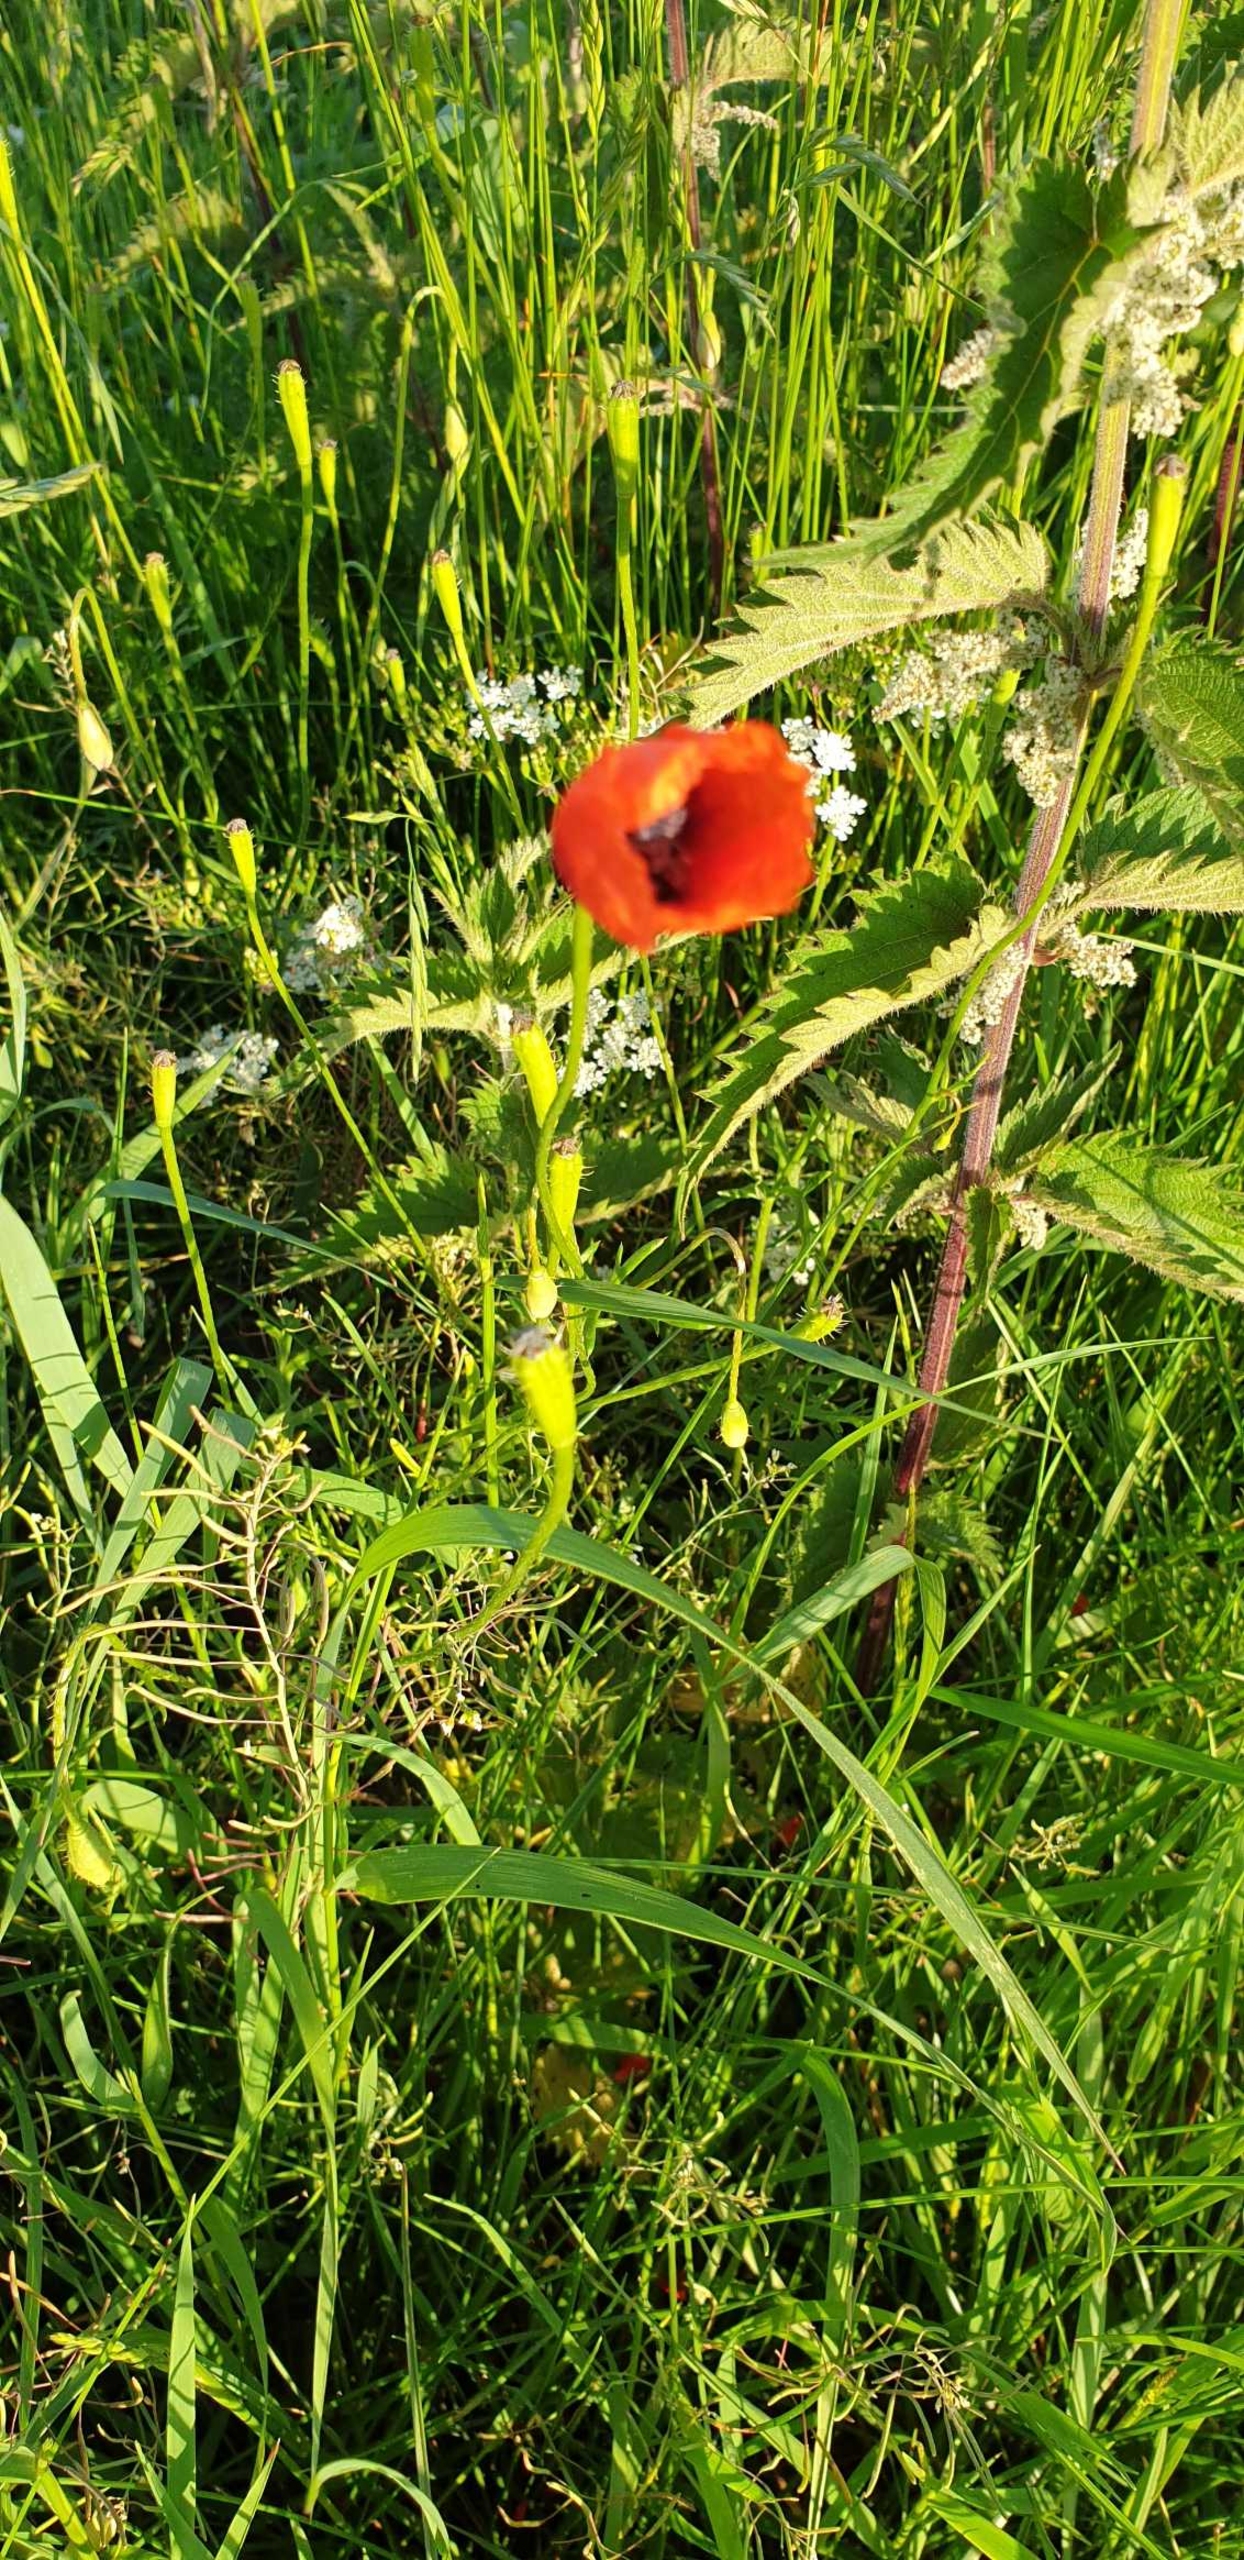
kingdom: Plantae
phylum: Tracheophyta
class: Magnoliopsida
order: Ranunculales
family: Papaveraceae
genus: Roemeria
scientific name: Roemeria argemone
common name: Kølle-valmue
